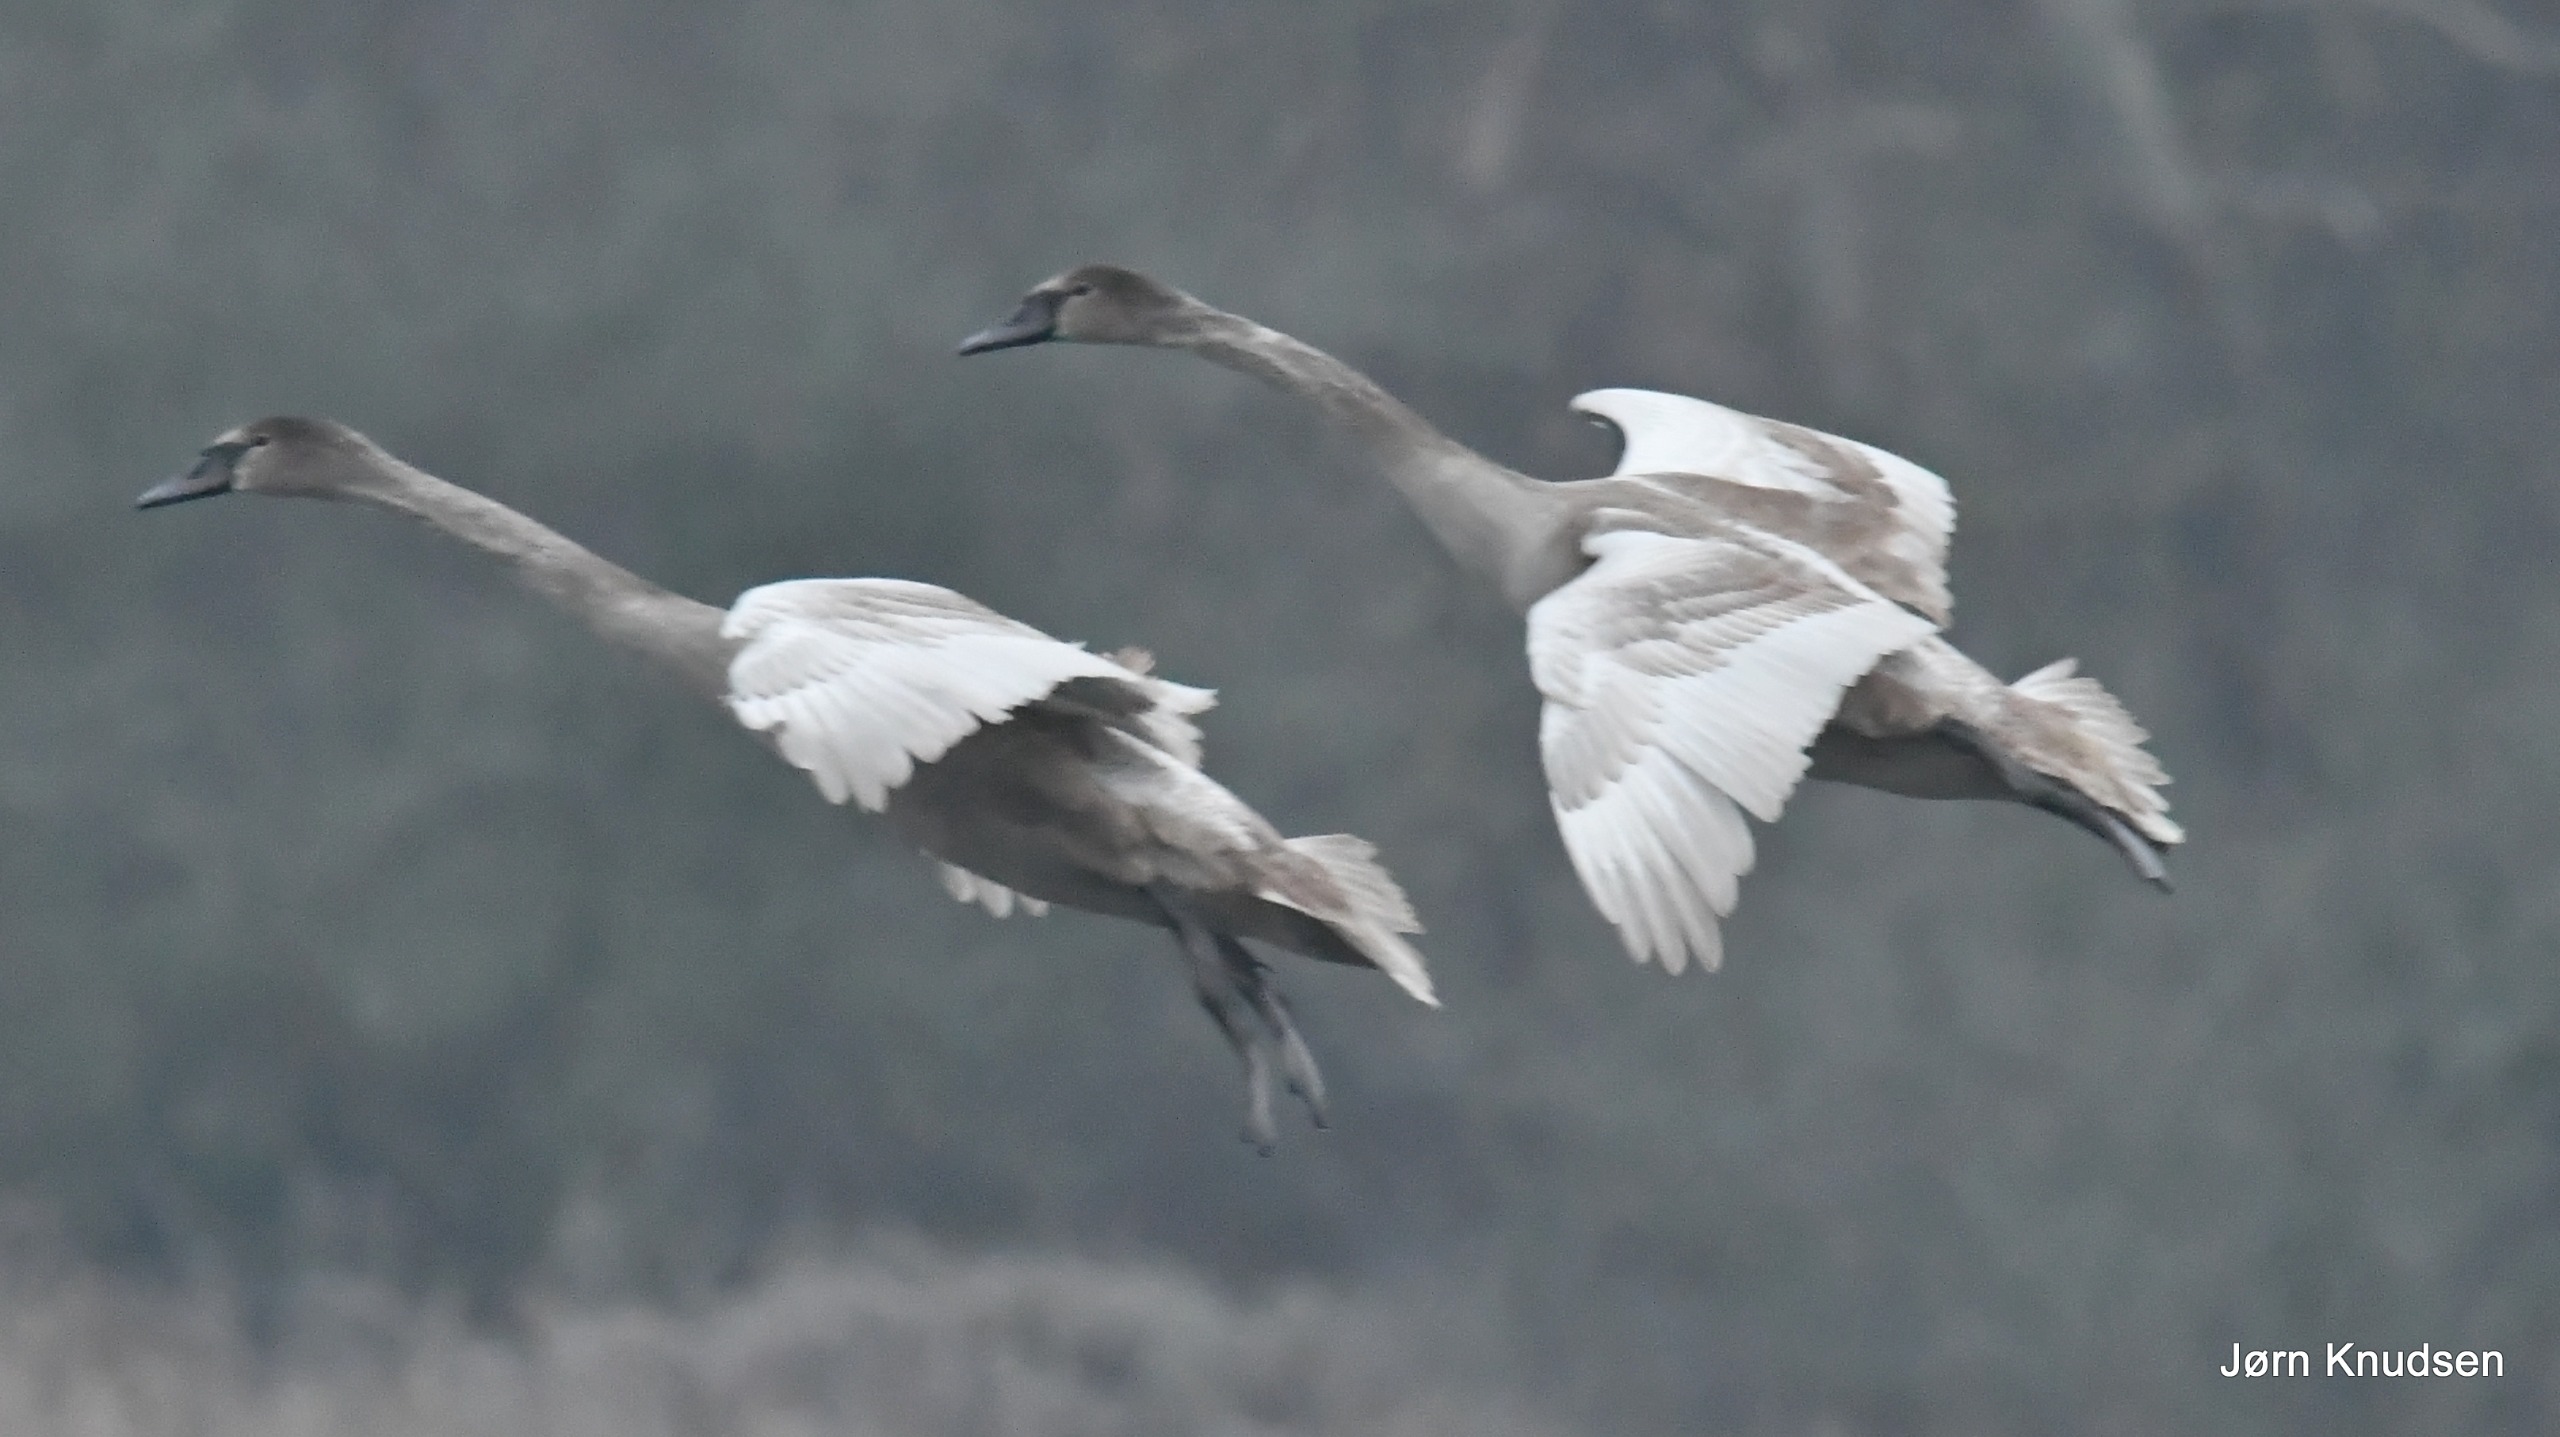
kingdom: Animalia
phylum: Chordata
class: Aves
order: Anseriformes
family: Anatidae
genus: Cygnus
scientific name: Cygnus olor
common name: Knopsvane
